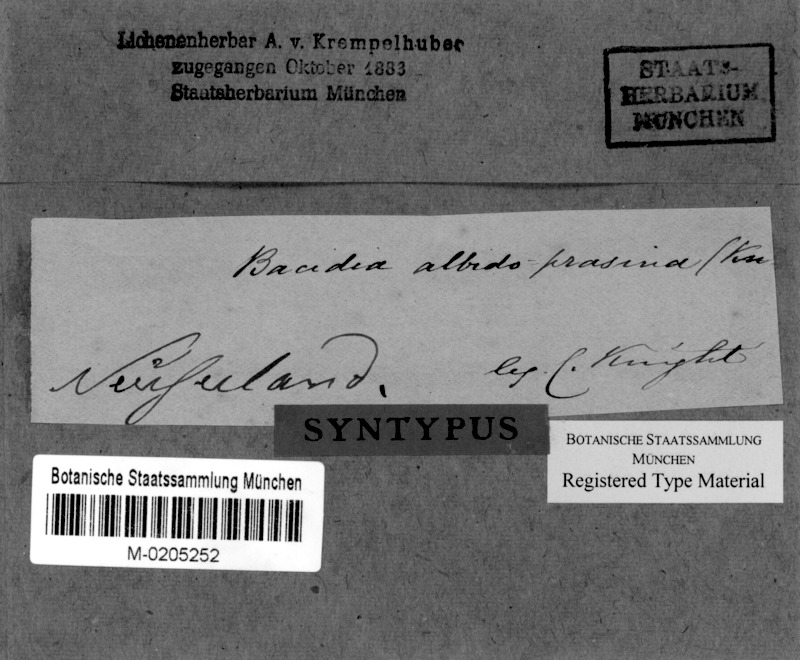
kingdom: Fungi
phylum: Ascomycota
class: Lecanoromycetes
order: Lecanorales
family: Ramalinaceae
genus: Bacidia
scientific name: Bacidia
